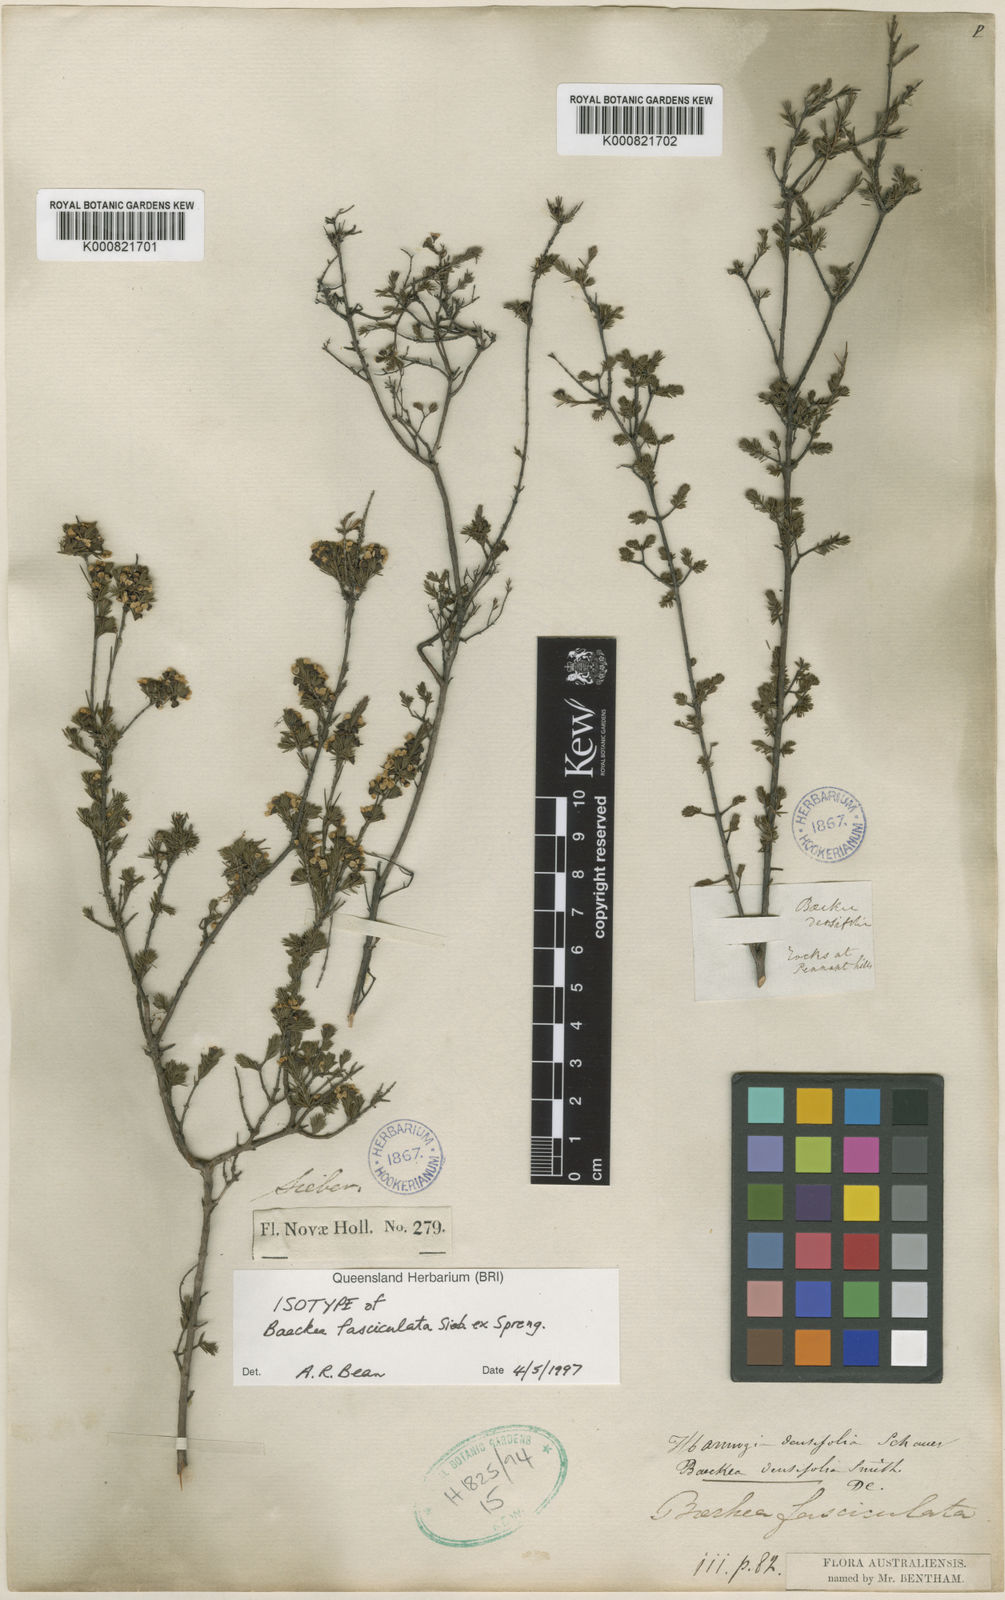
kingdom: Plantae
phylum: Tracheophyta
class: Magnoliopsida
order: Myrtales
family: Myrtaceae
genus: Harmogia
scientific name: Harmogia densifolia
